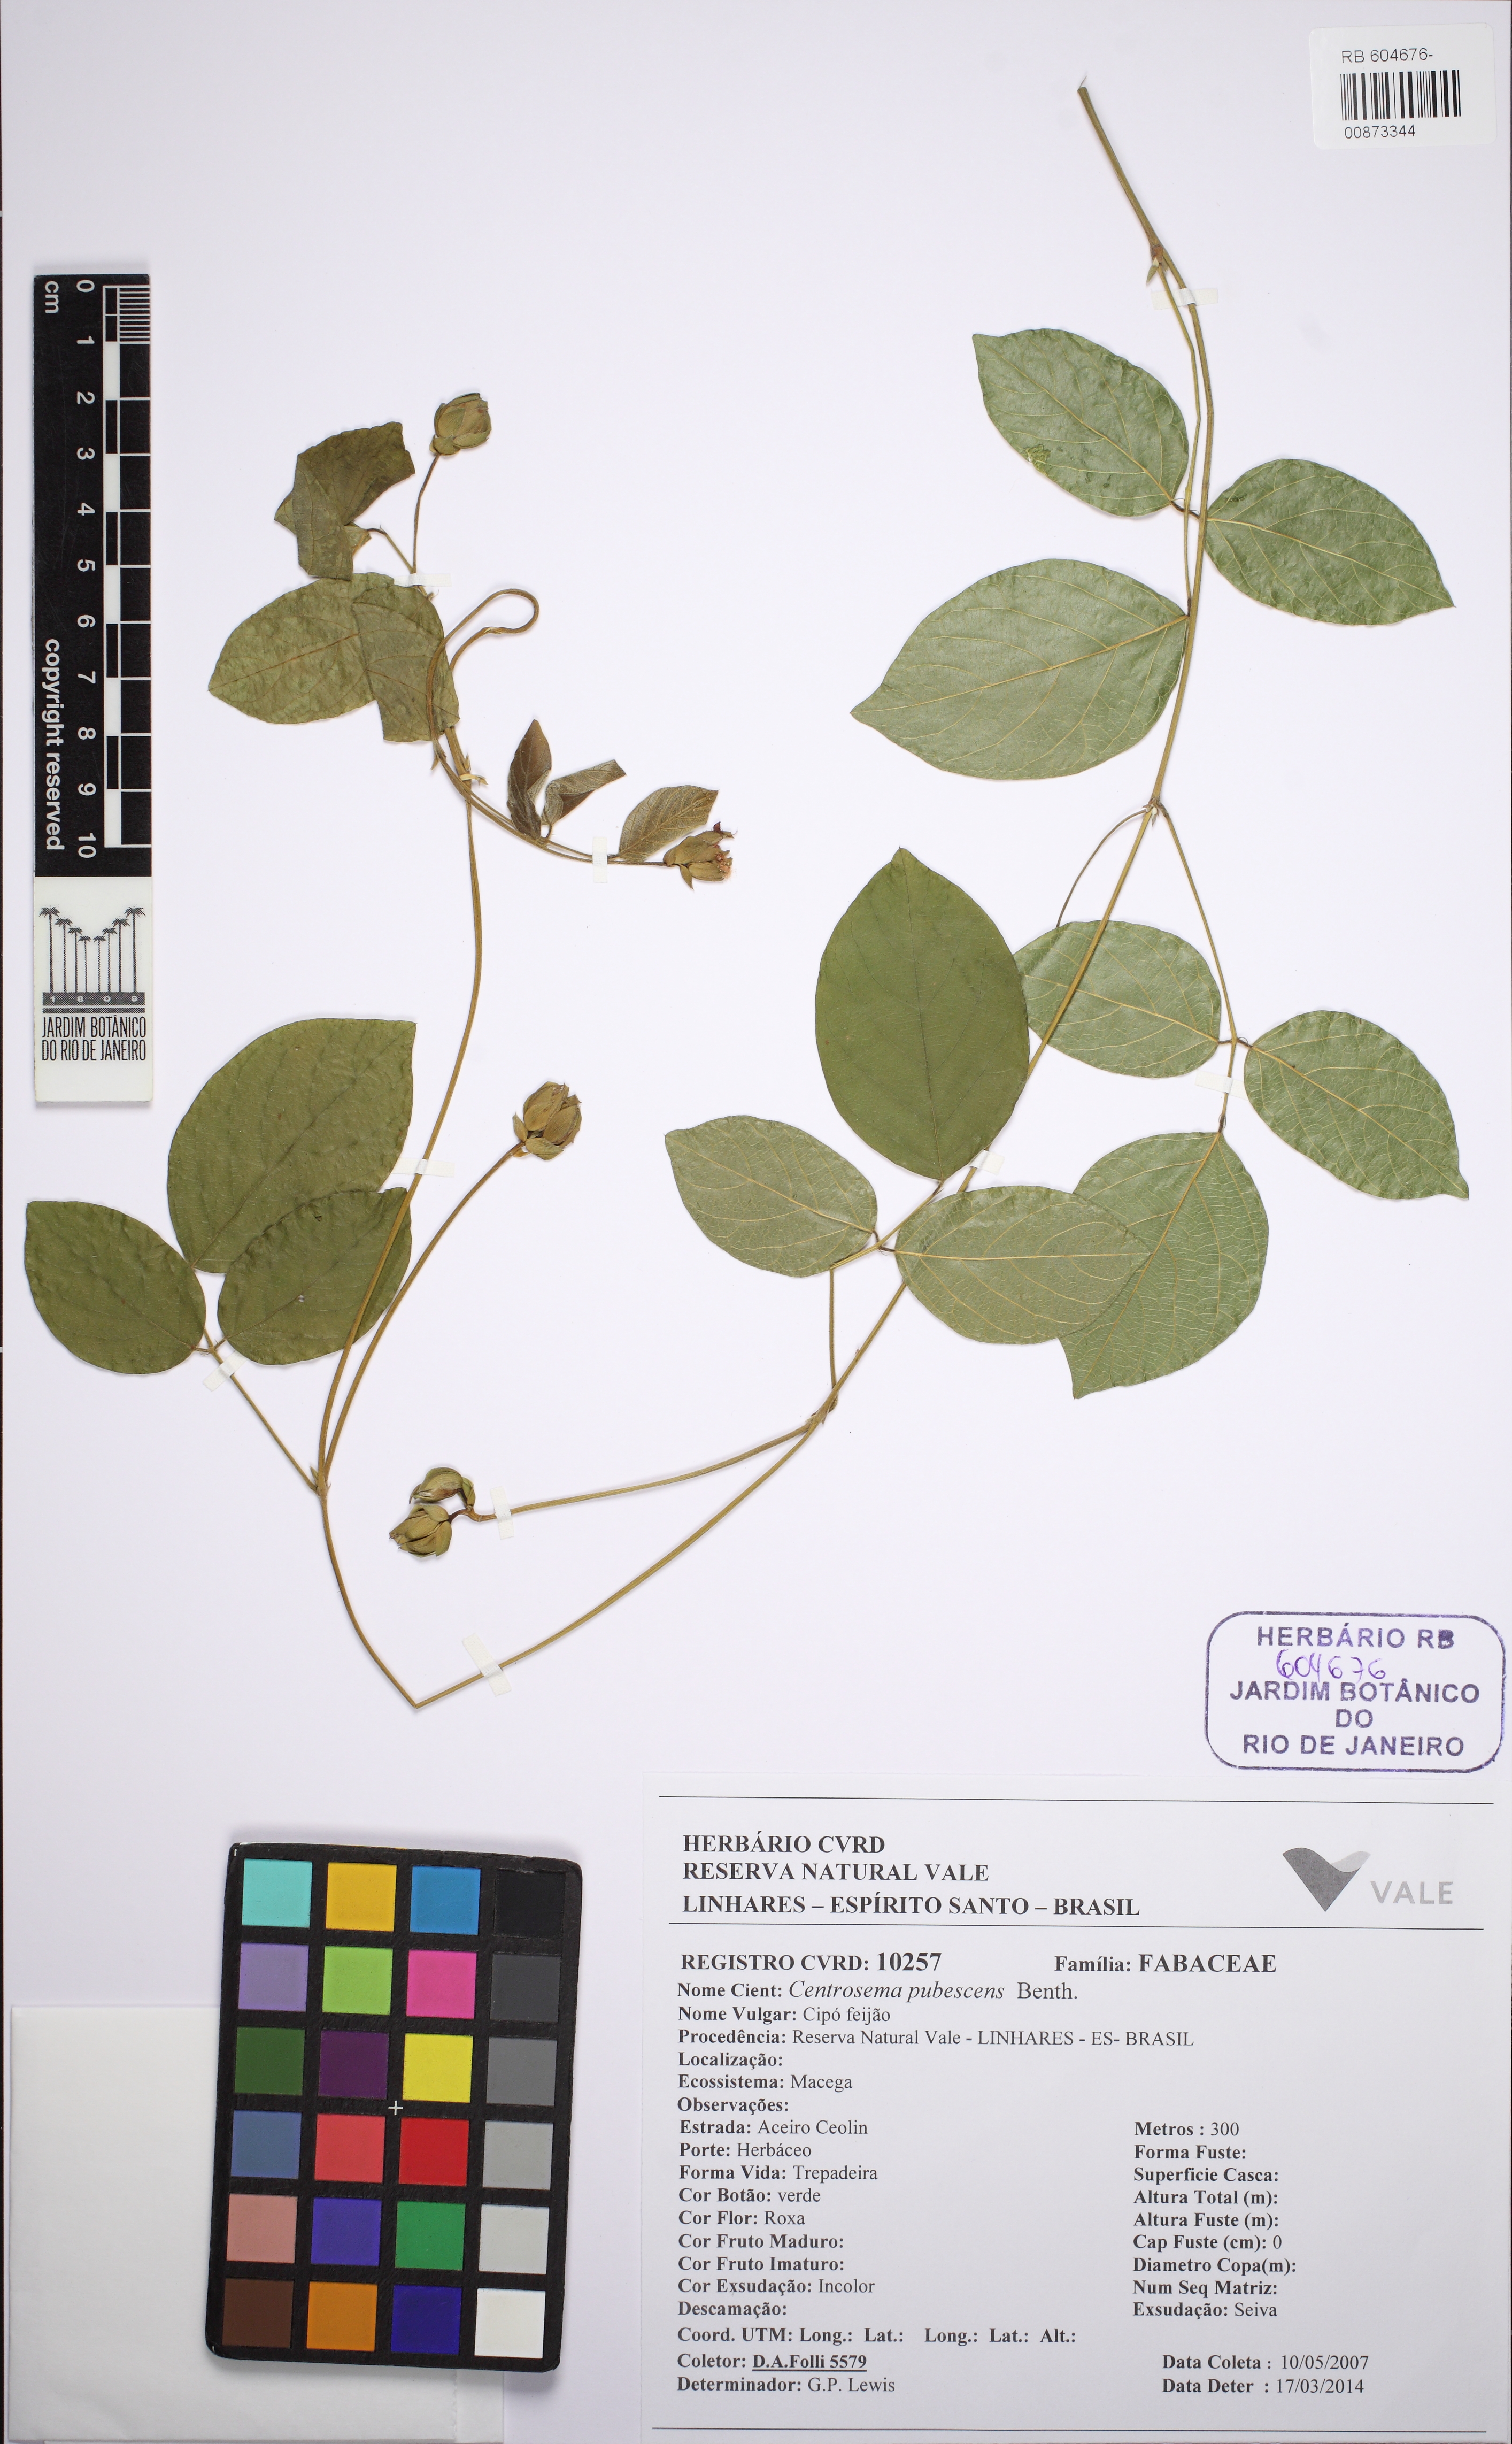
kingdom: Plantae
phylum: Tracheophyta
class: Magnoliopsida
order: Fabales
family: Fabaceae
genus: Centrosema
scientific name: Centrosema pubescens
